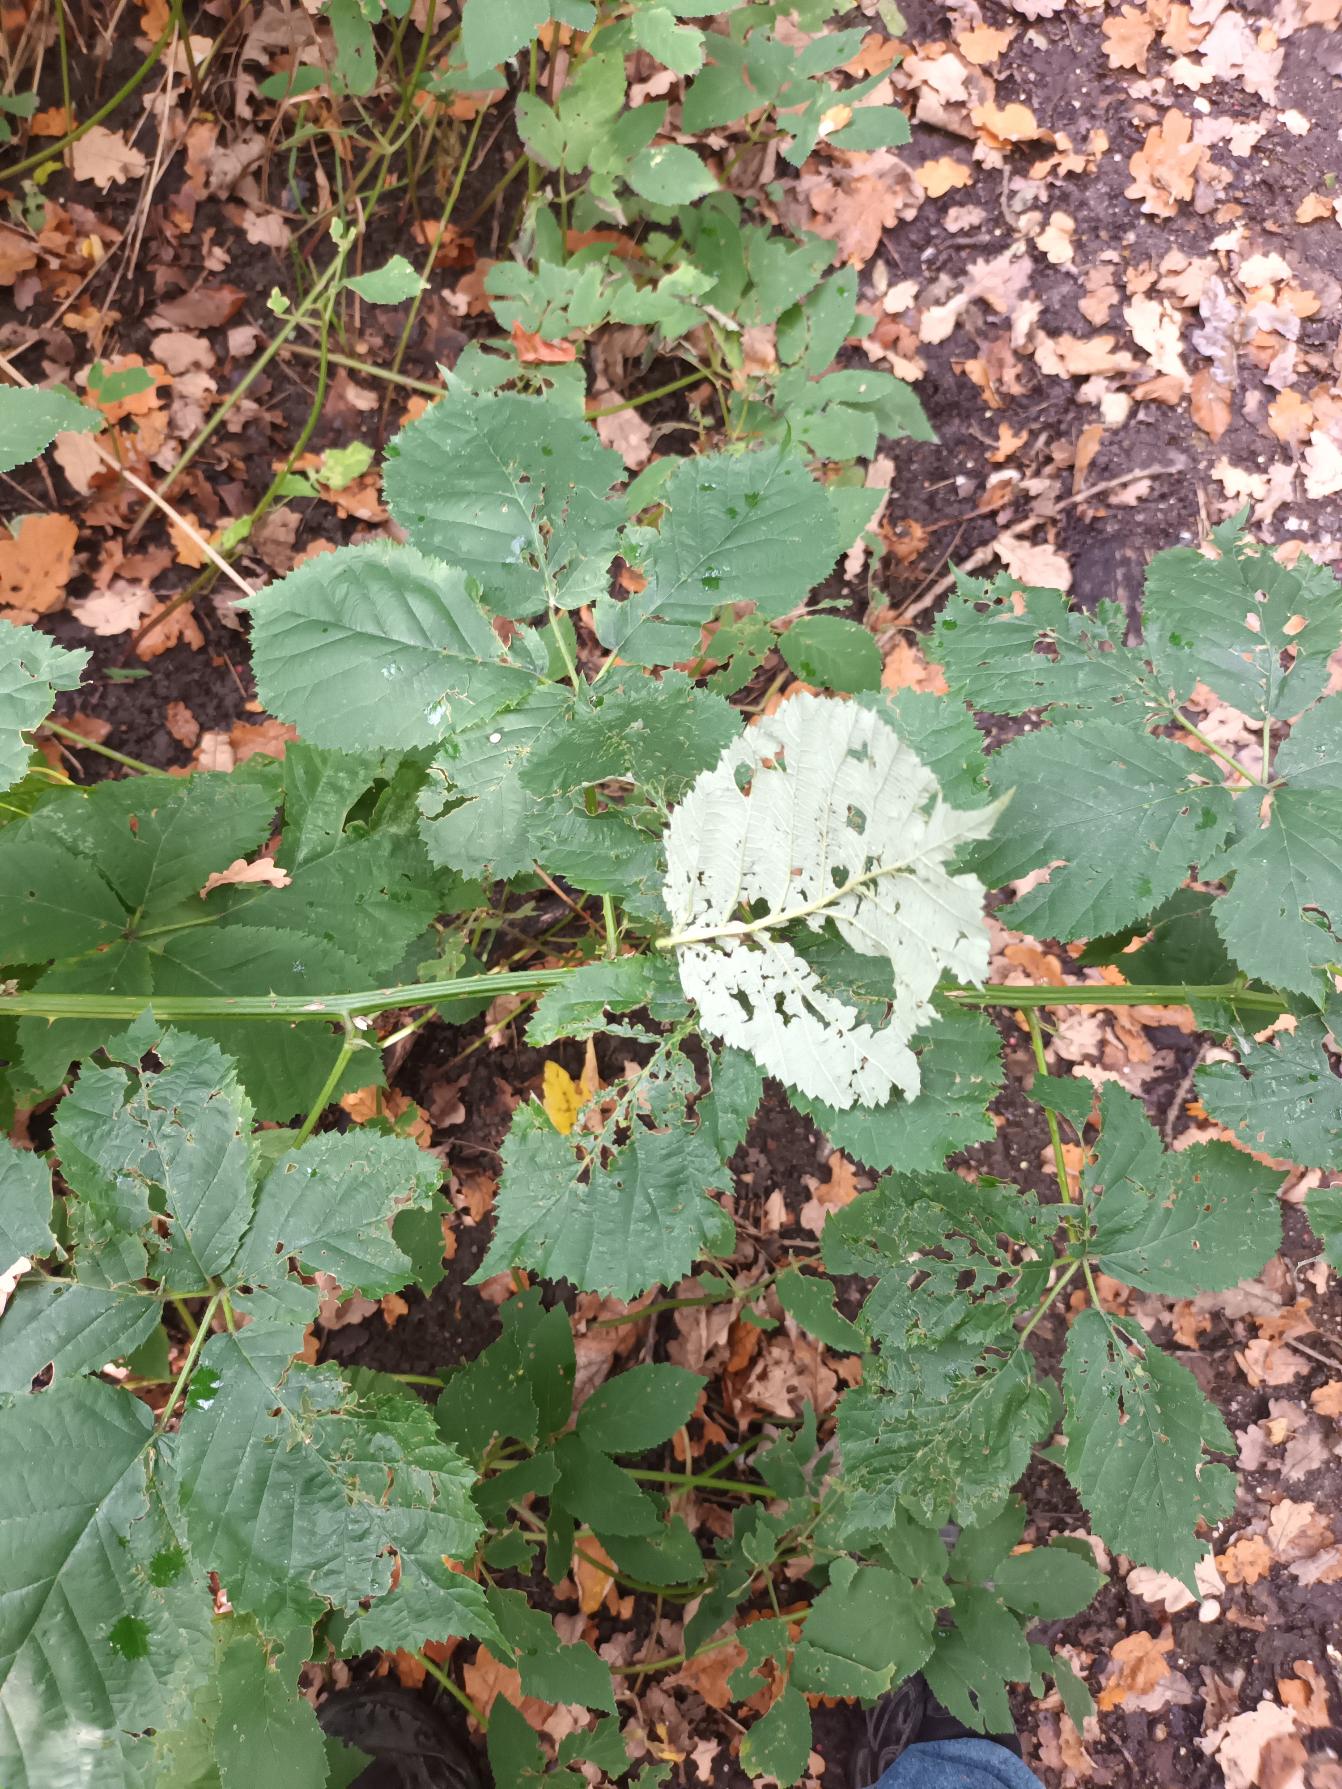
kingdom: Plantae
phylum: Tracheophyta
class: Magnoliopsida
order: Rosales
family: Rosaceae
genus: Rubus
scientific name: Rubus armeniacus
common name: Armensk brombær
